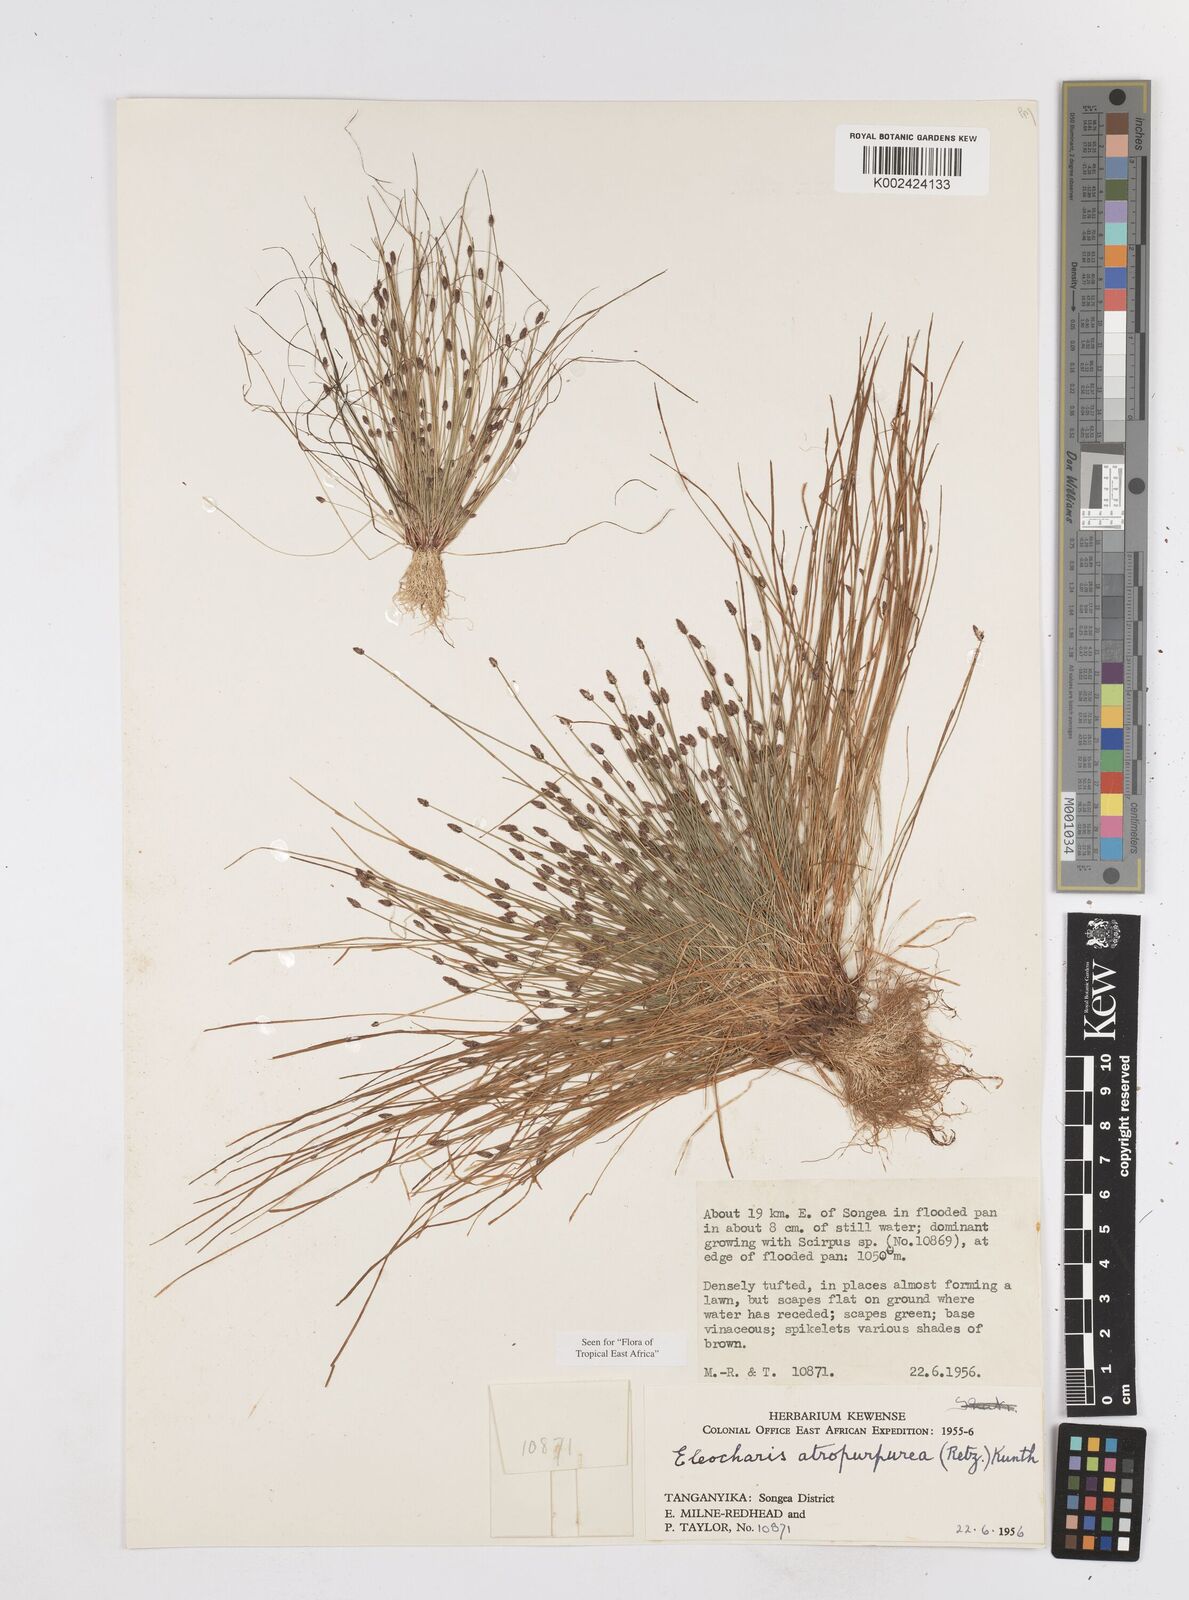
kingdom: Plantae
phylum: Tracheophyta
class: Liliopsida
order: Poales
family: Cyperaceae
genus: Eleocharis
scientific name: Eleocharis atropurpurea
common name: Purple spikerush
